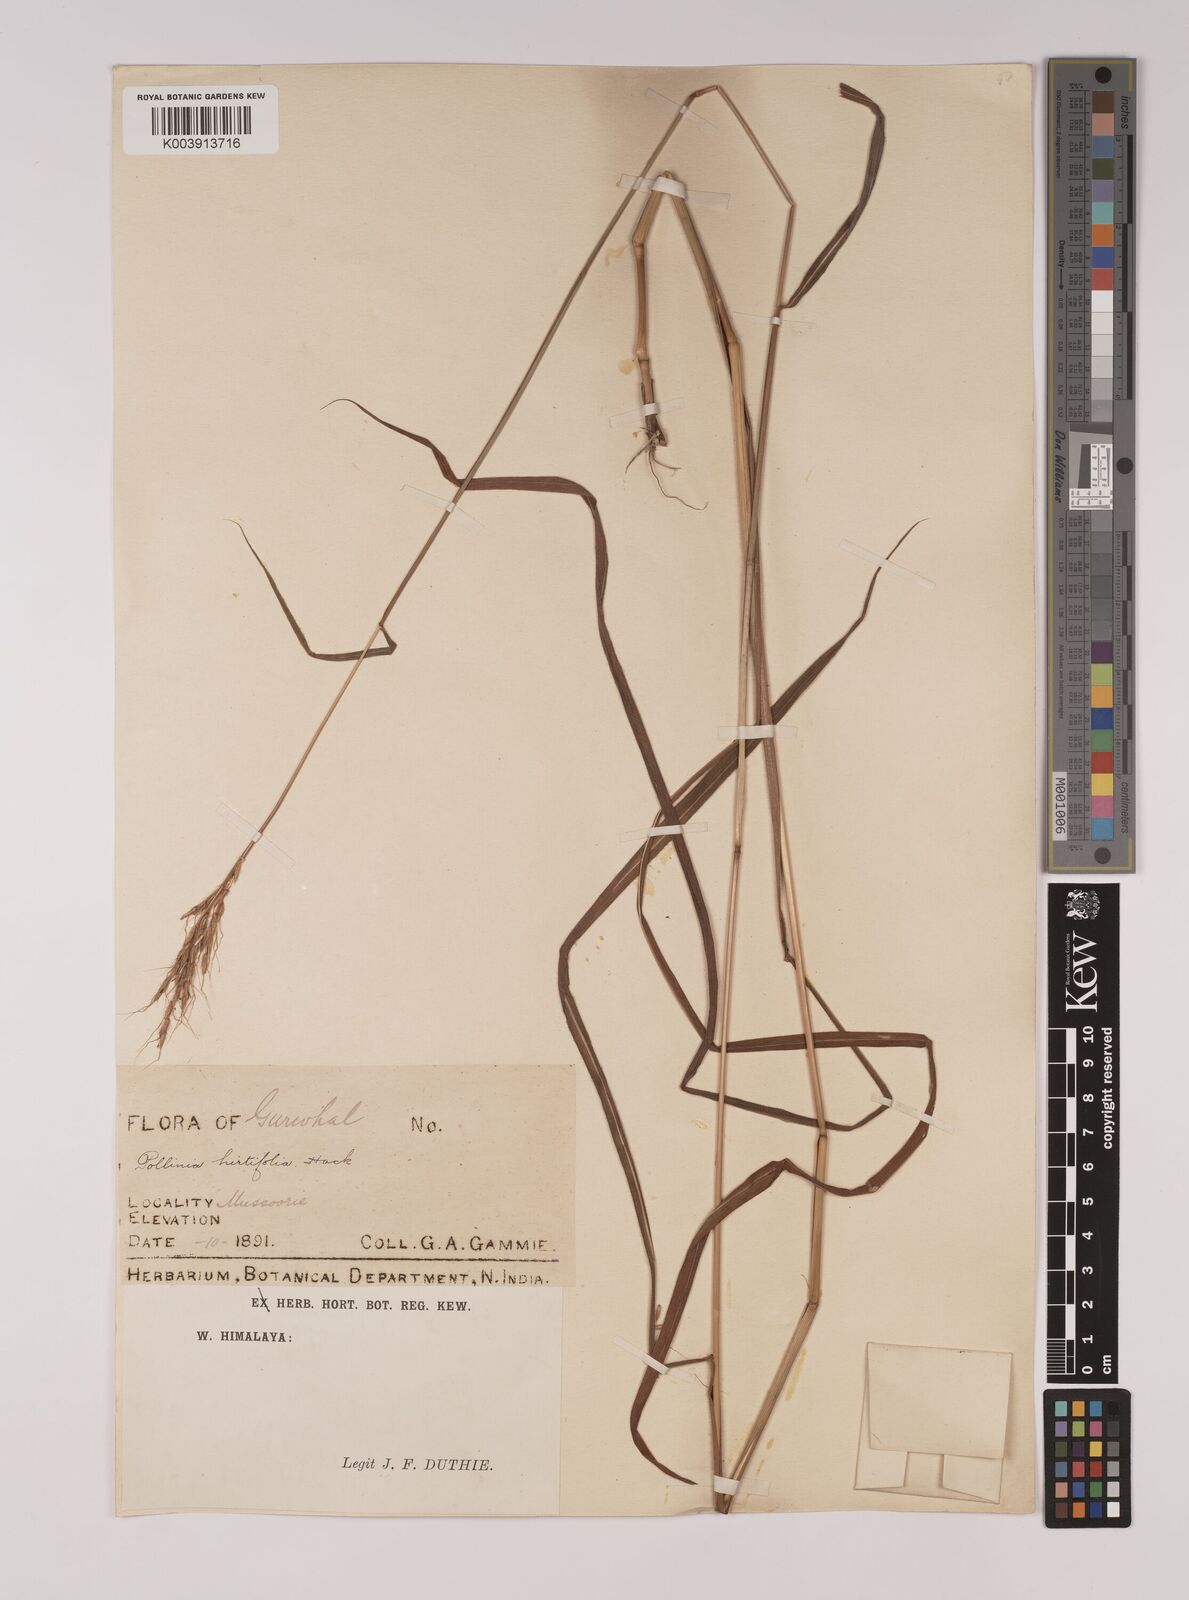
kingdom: Plantae
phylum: Tracheophyta
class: Liliopsida
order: Poales
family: Poaceae
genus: Eulalia
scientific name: Eulalia hirtifolia
